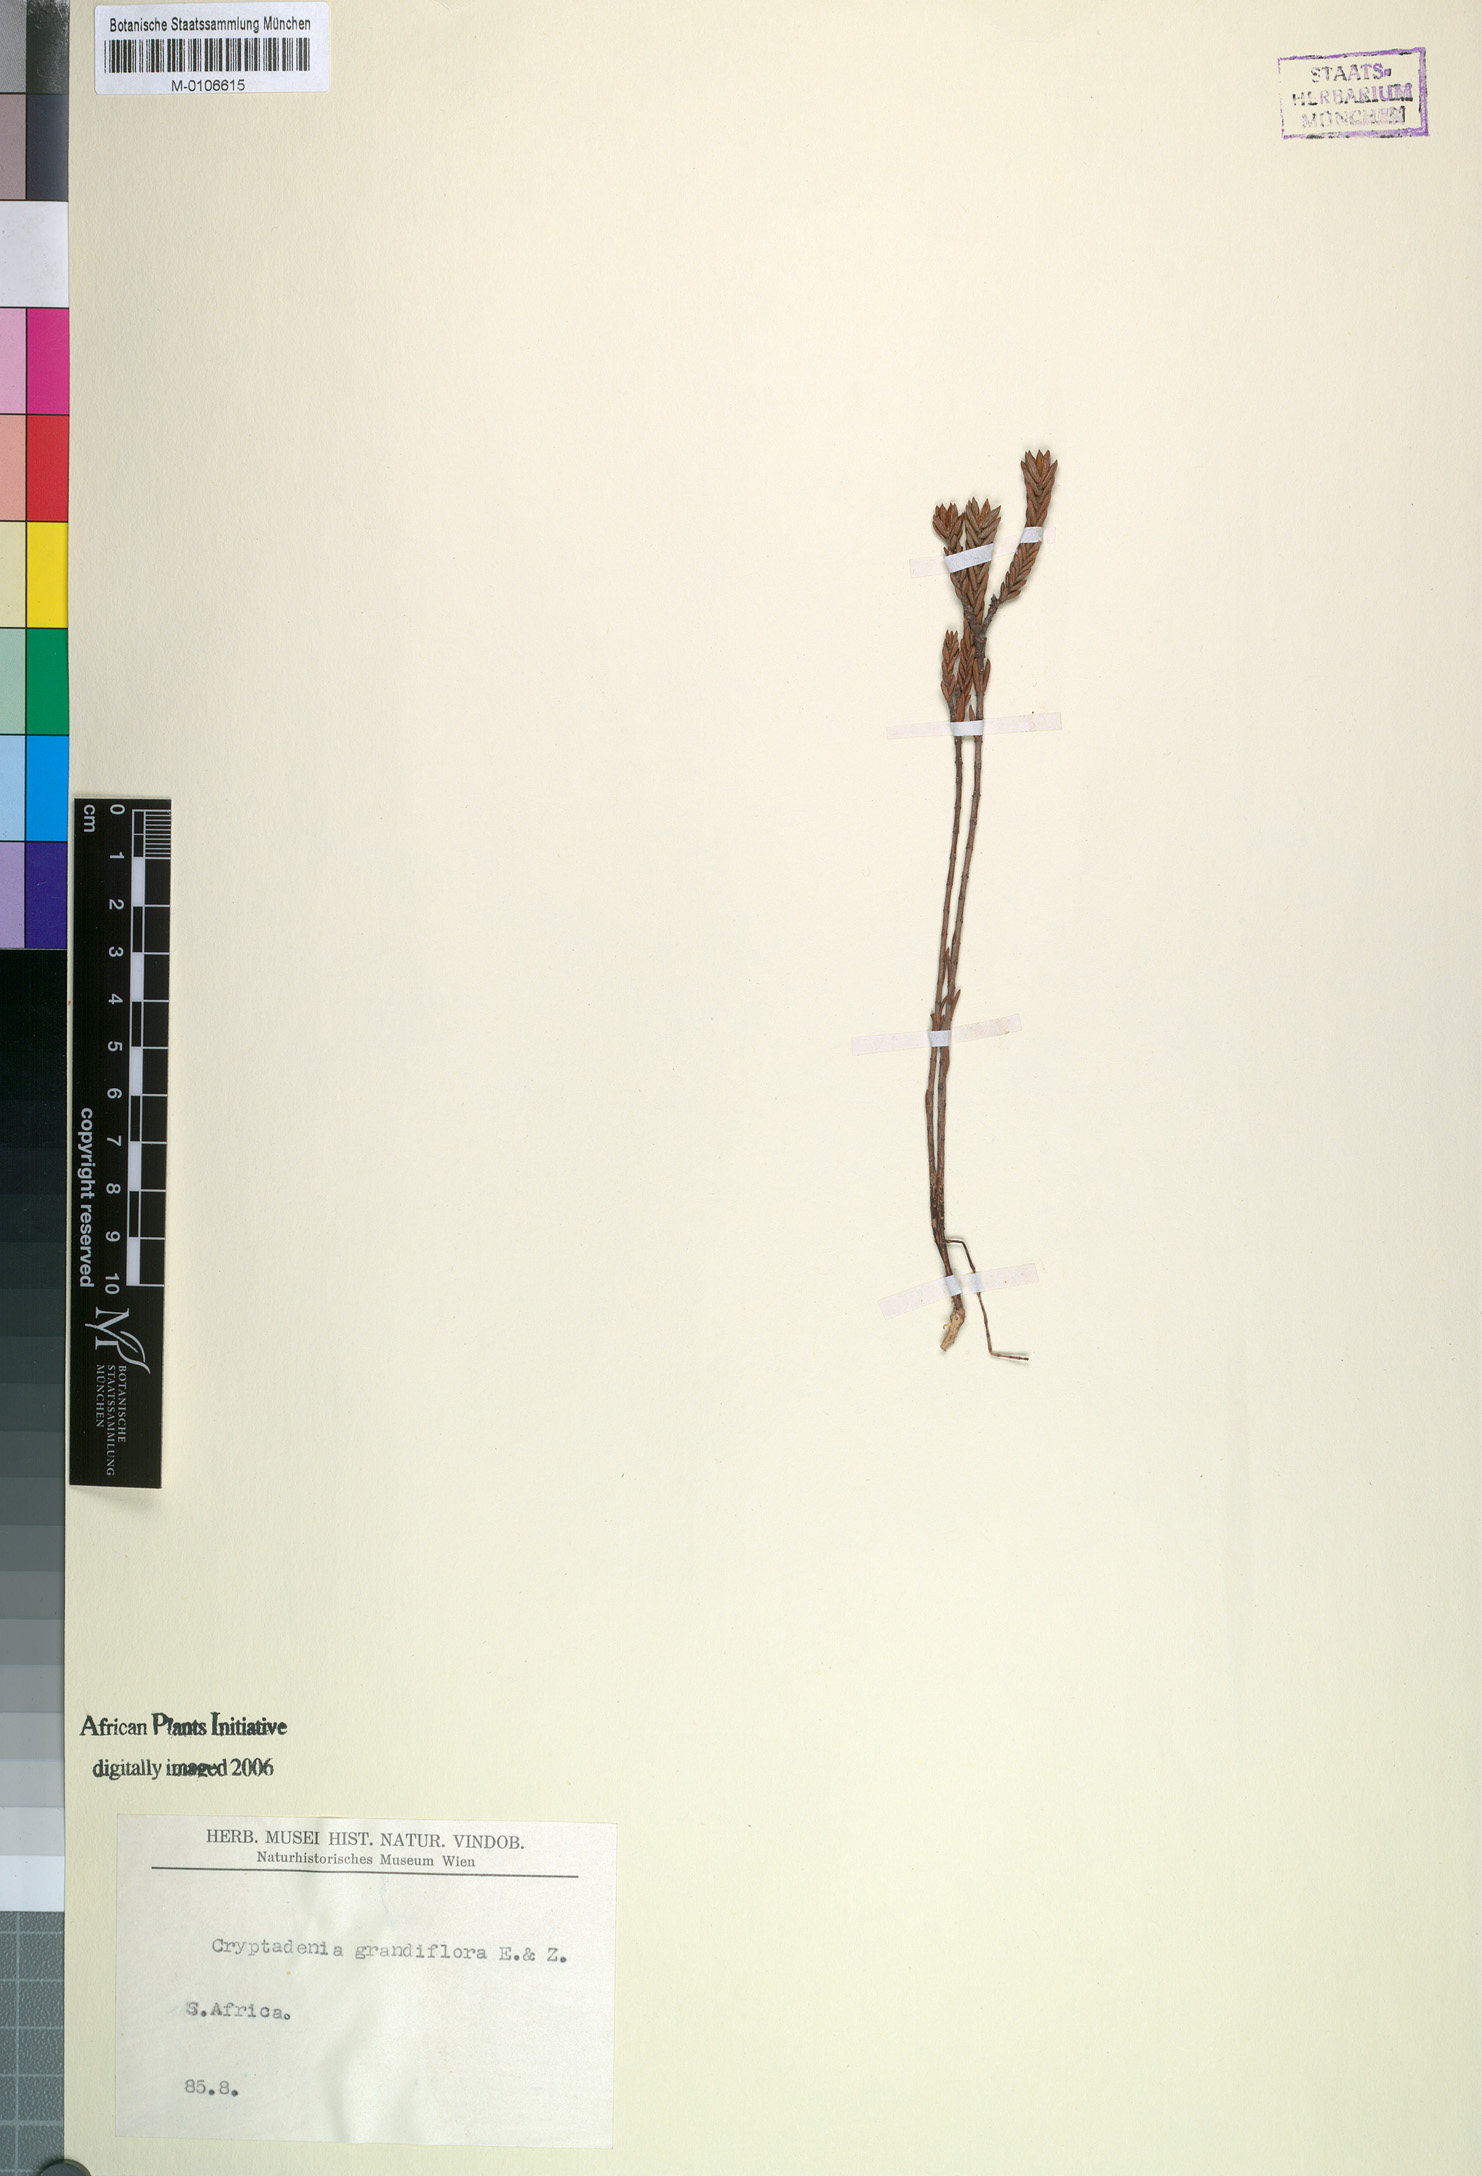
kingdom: Plantae
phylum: Tracheophyta
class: Magnoliopsida
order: Malvales
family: Thymelaeaceae
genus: Lachnaea
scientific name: Lachnaea grandiflora
